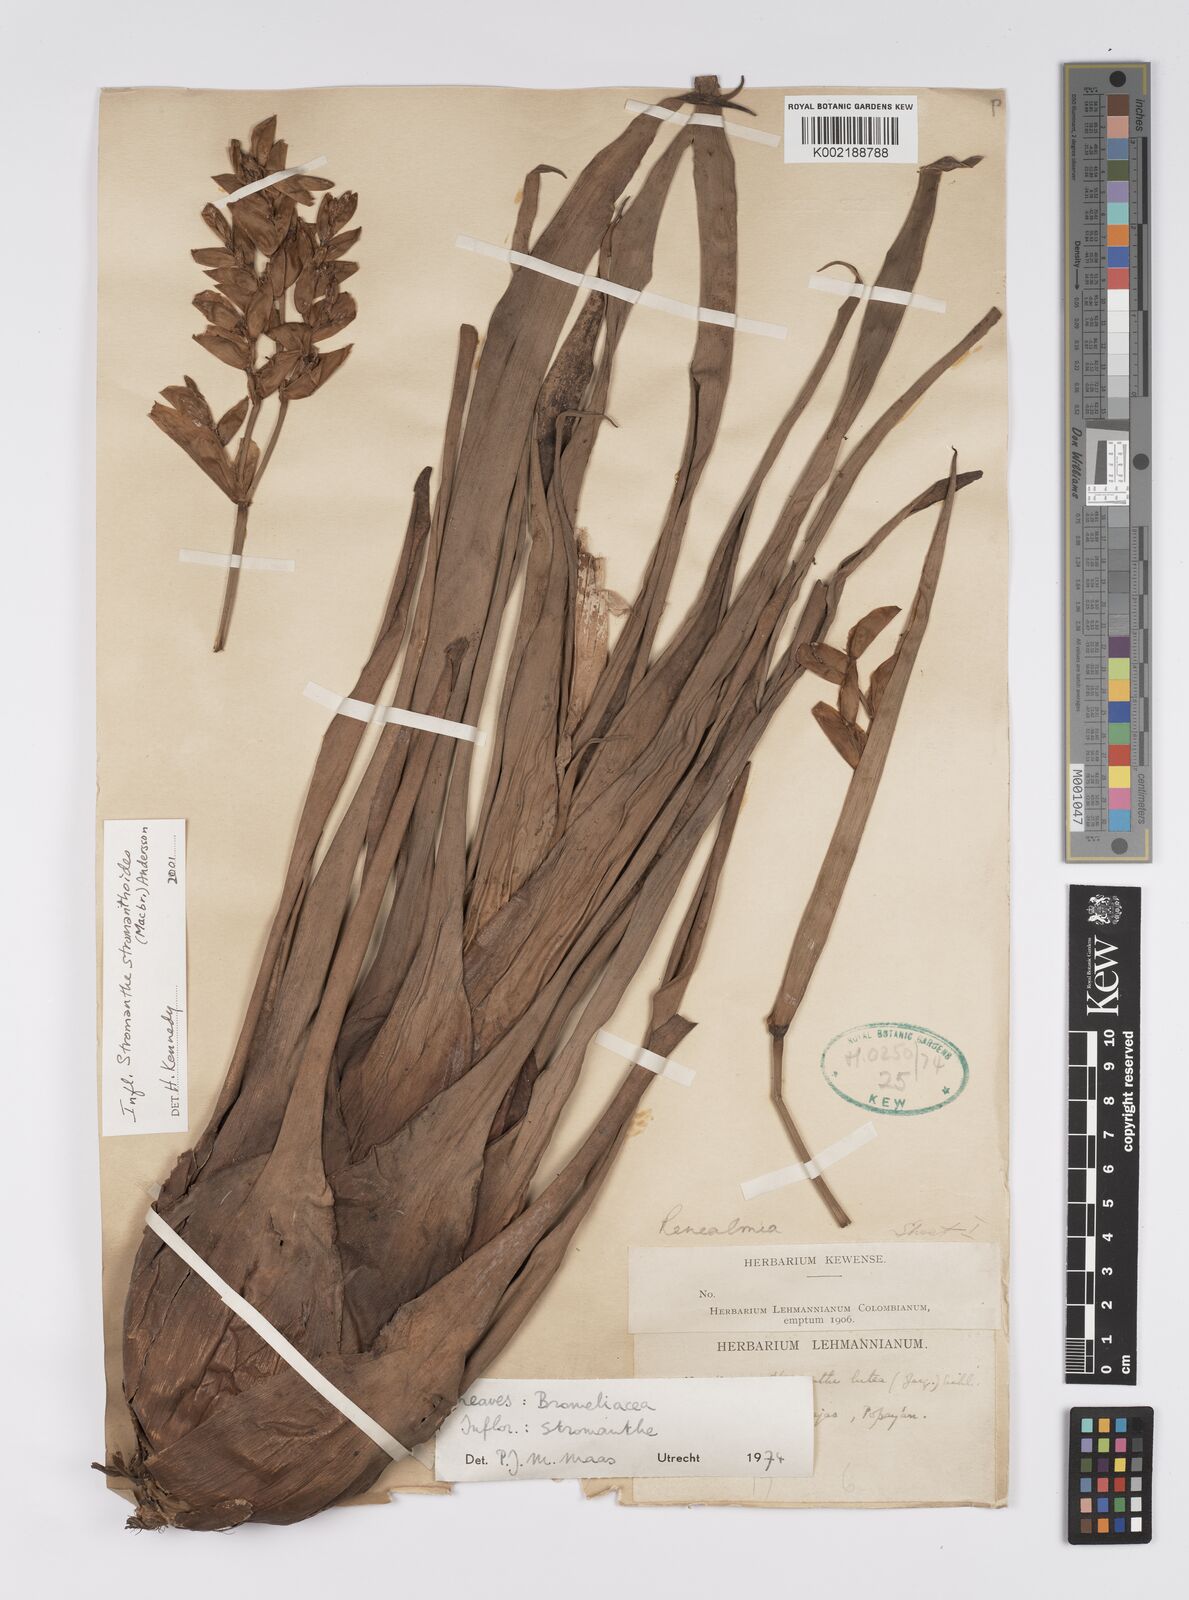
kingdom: Plantae
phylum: Tracheophyta
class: Liliopsida
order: Zingiberales
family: Marantaceae
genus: Stromanthe
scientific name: Stromanthe stromanthoides
